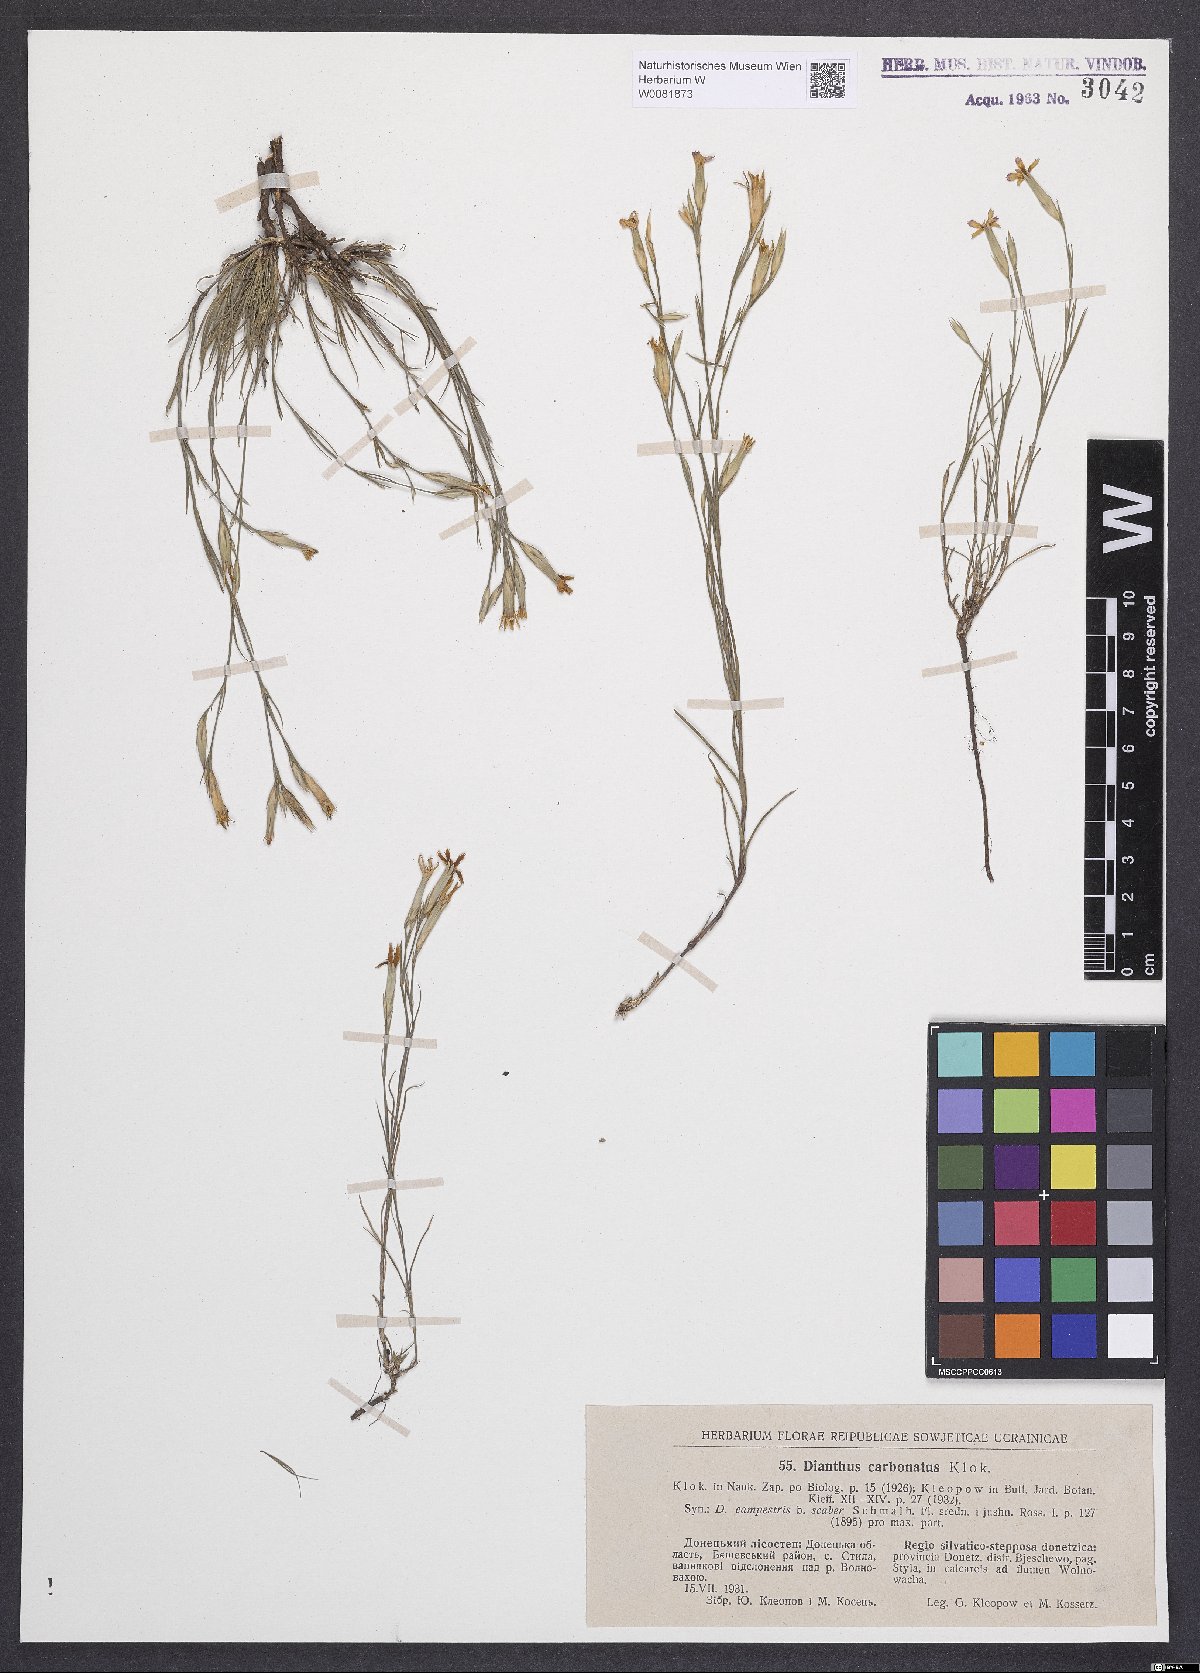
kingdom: Plantae
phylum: Tracheophyta
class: Magnoliopsida
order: Caryophyllales
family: Caryophyllaceae
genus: Dianthus
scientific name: Dianthus carbonatus
